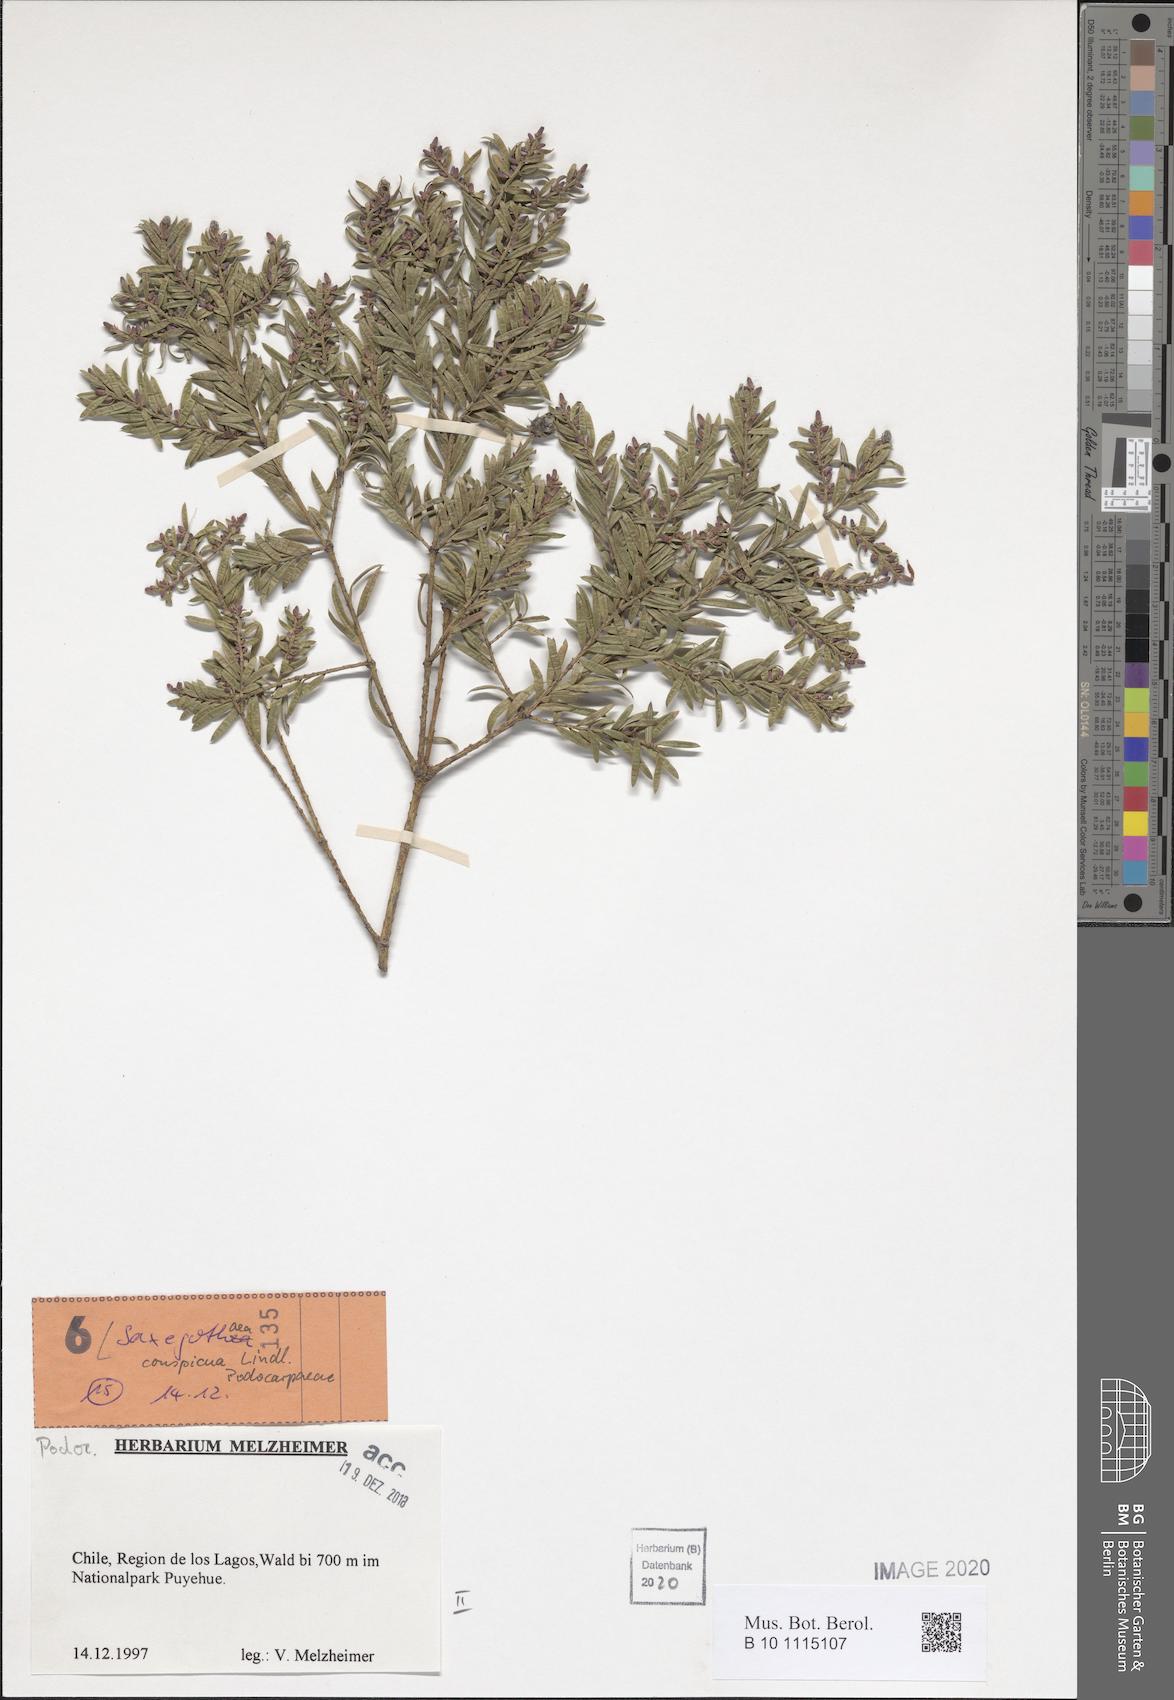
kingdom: Plantae
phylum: Tracheophyta
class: Pinopsida
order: Pinales
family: Podocarpaceae
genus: Saxegothaea
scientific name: Saxegothaea conspicua
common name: Prince albert's yew
